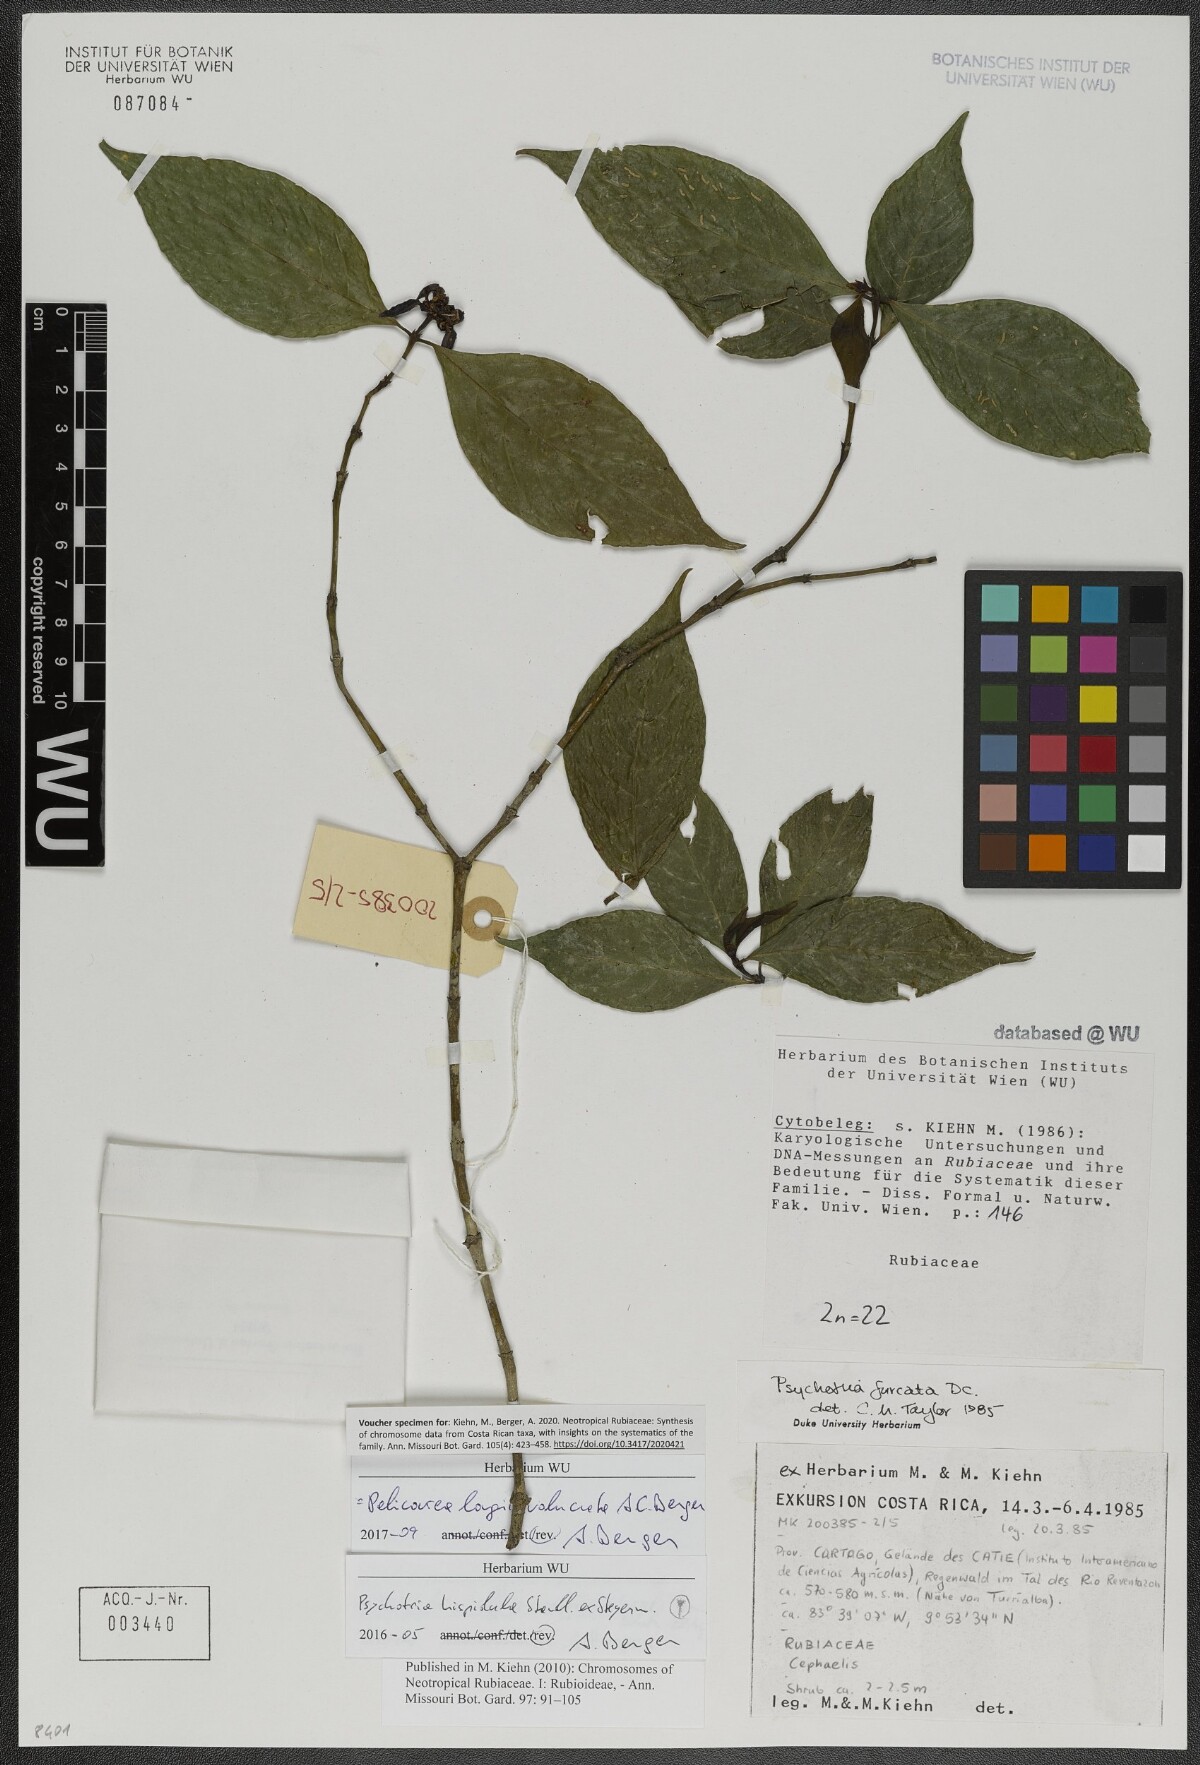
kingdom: Plantae
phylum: Tracheophyta
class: Magnoliopsida
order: Gentianales
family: Rubiaceae
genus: Palicourea
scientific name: Palicourea longiinvolucrata
